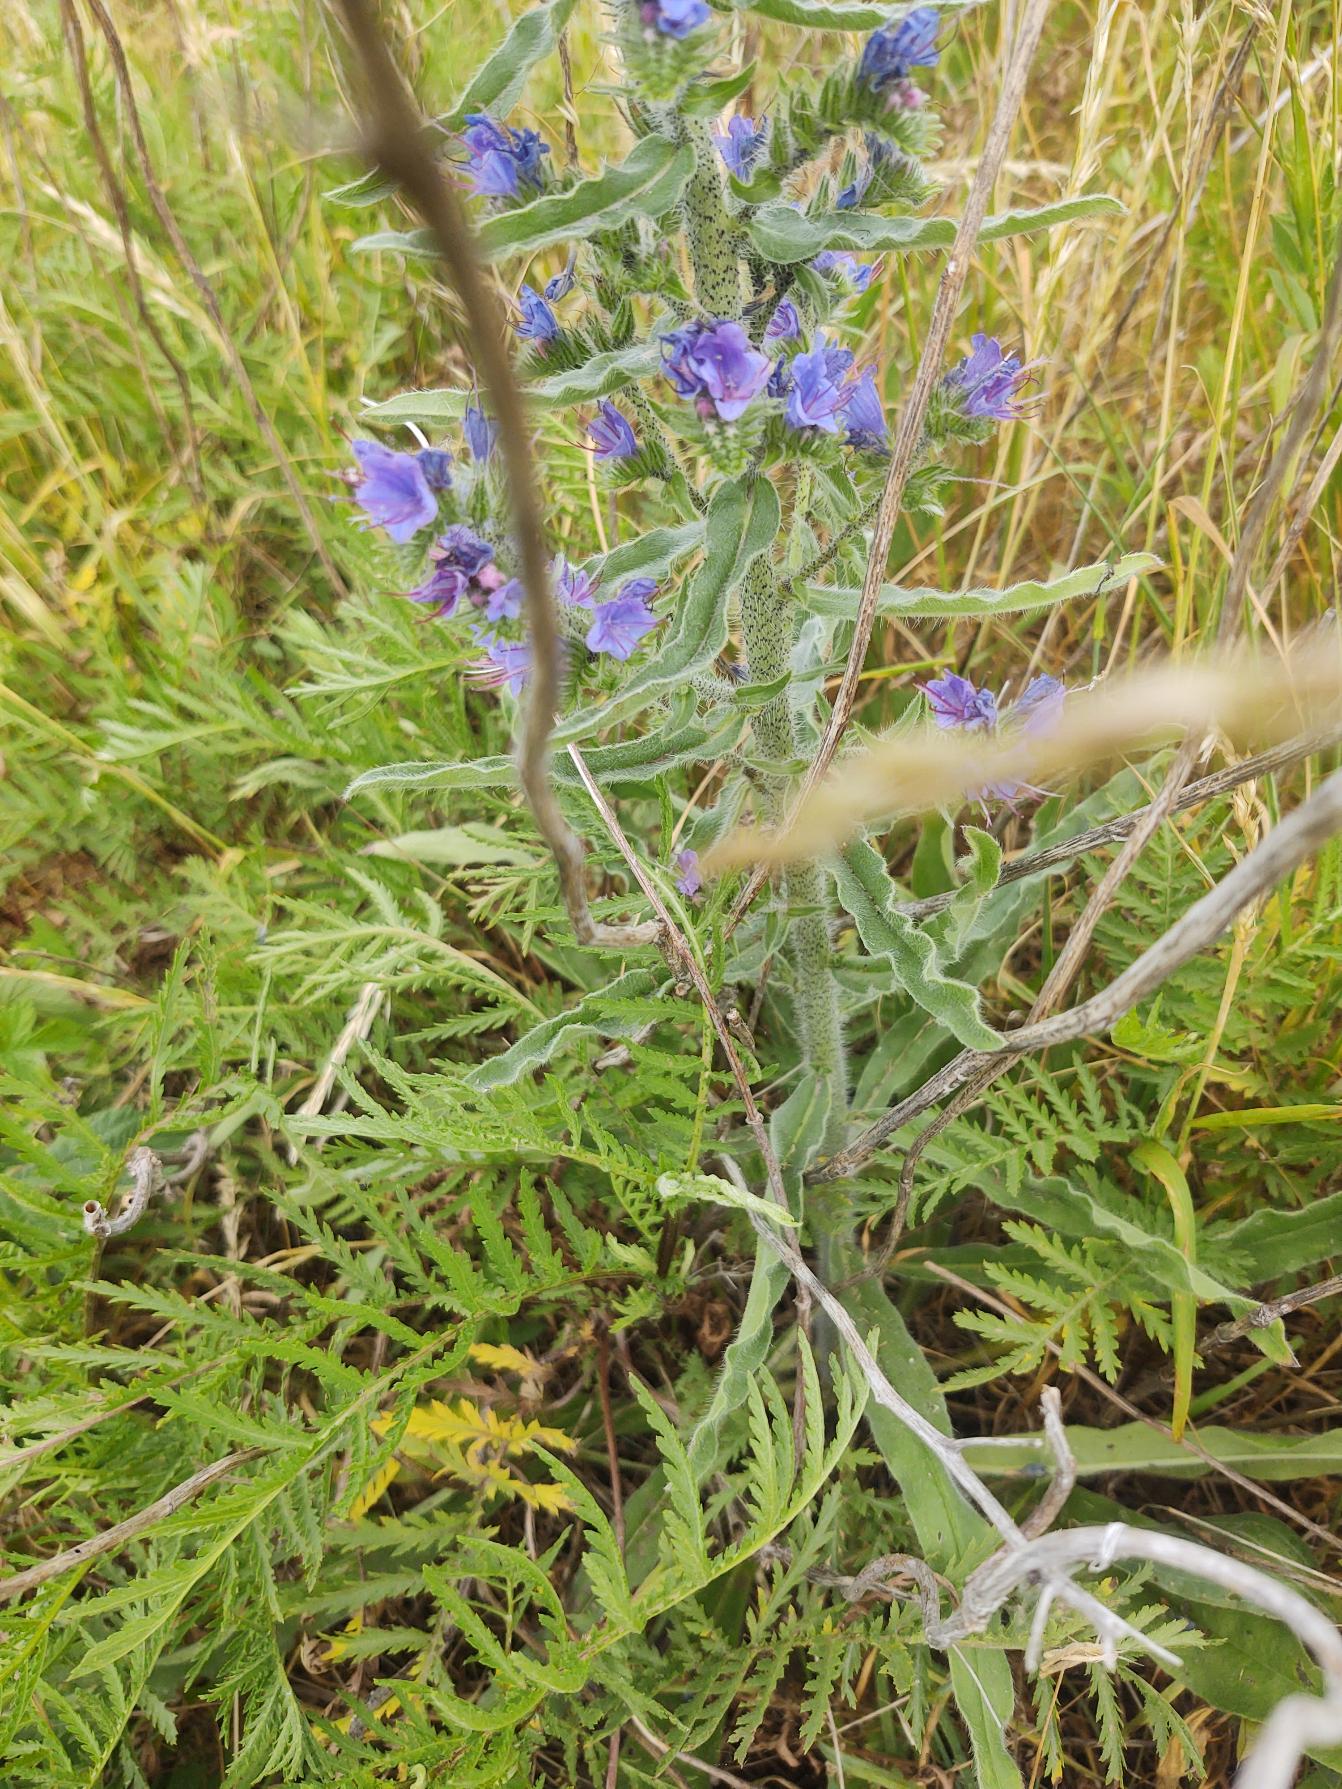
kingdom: Plantae
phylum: Tracheophyta
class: Magnoliopsida
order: Boraginales
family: Boraginaceae
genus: Echium
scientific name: Echium vulgare
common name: Slangehoved
